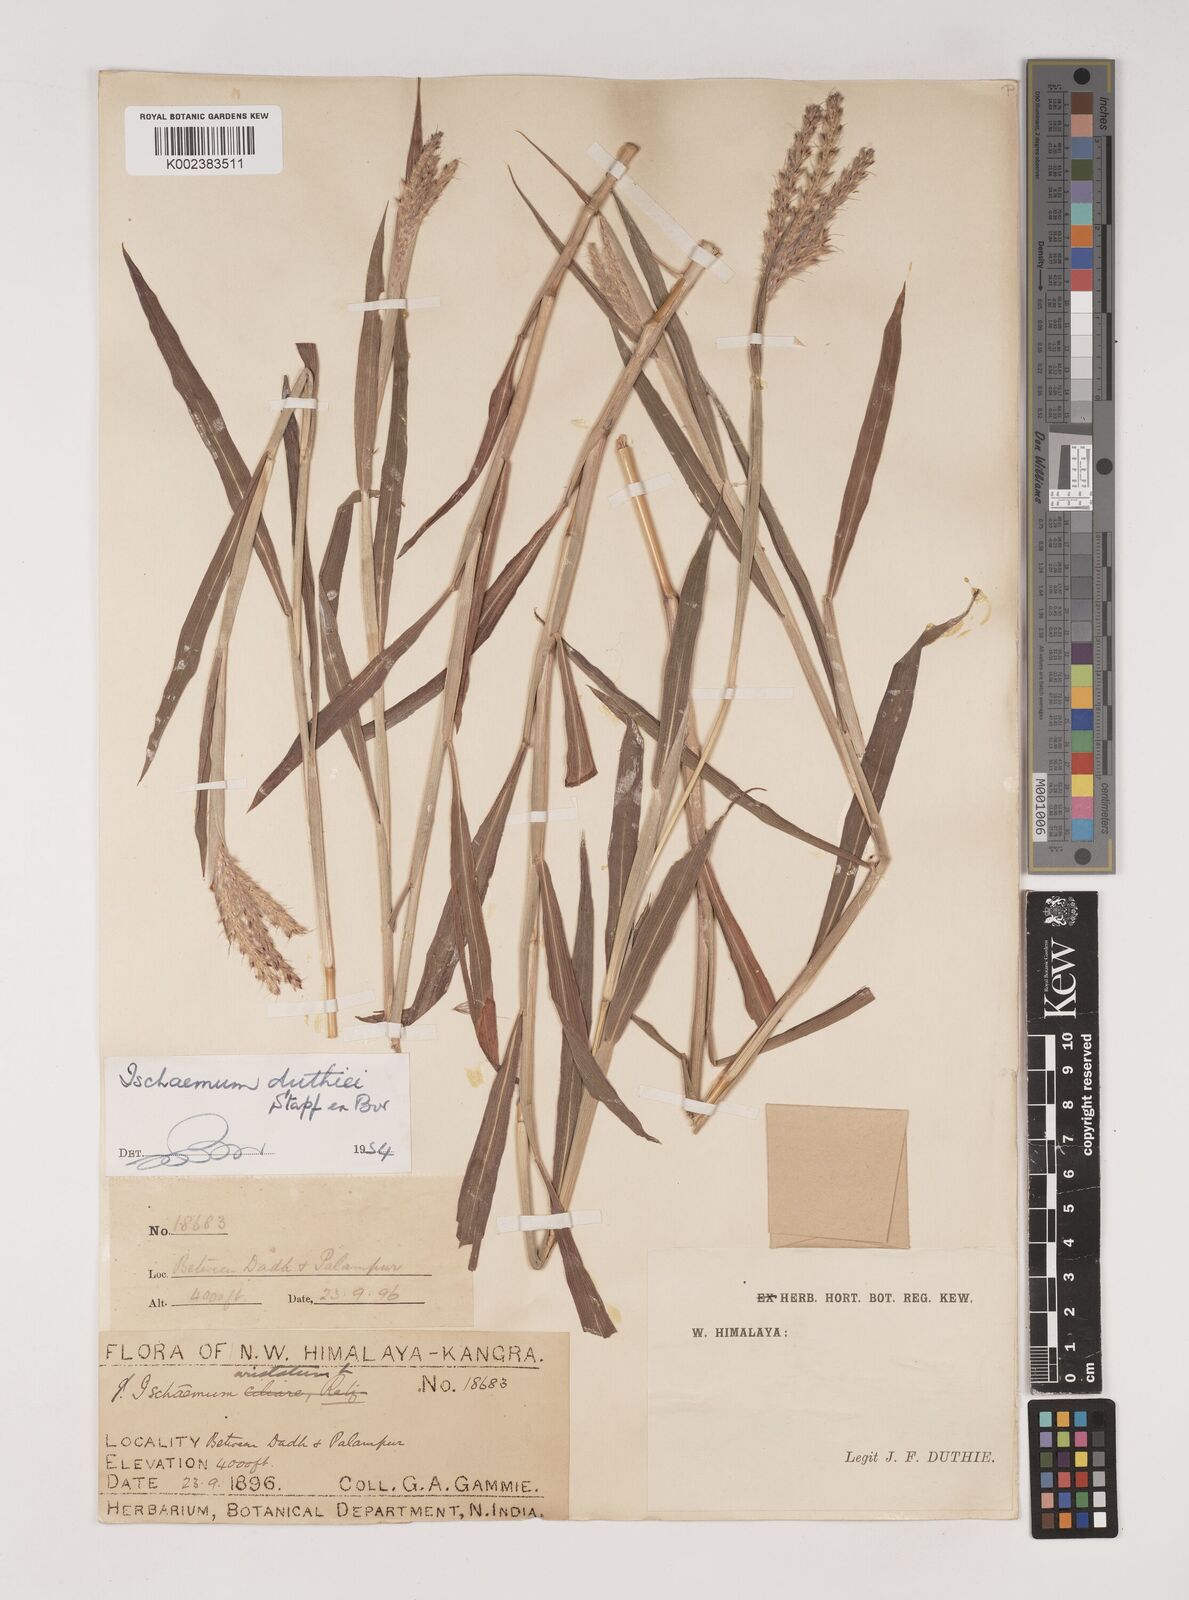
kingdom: Plantae
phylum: Tracheophyta
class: Liliopsida
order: Poales
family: Poaceae
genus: Ischaemum
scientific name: Ischaemum
